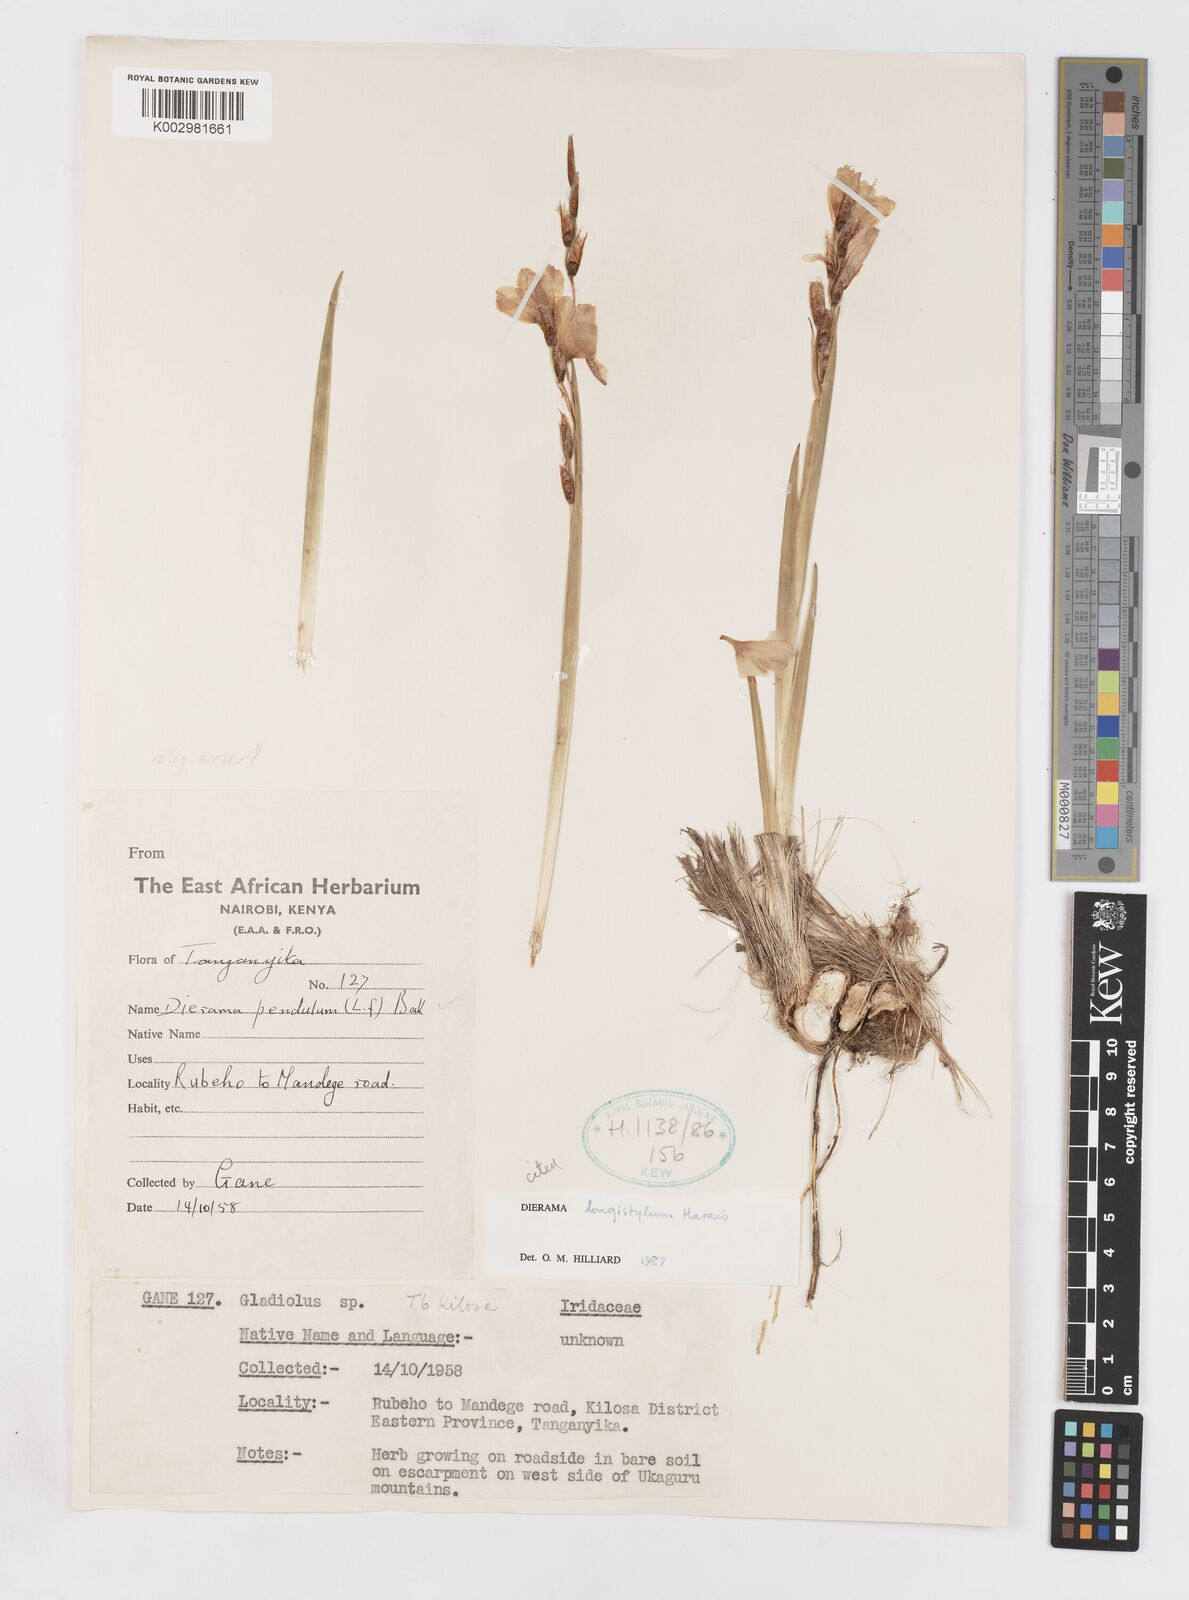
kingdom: Plantae
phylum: Tracheophyta
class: Liliopsida
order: Asparagales
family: Iridaceae
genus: Dierama
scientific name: Dierama longistylum
